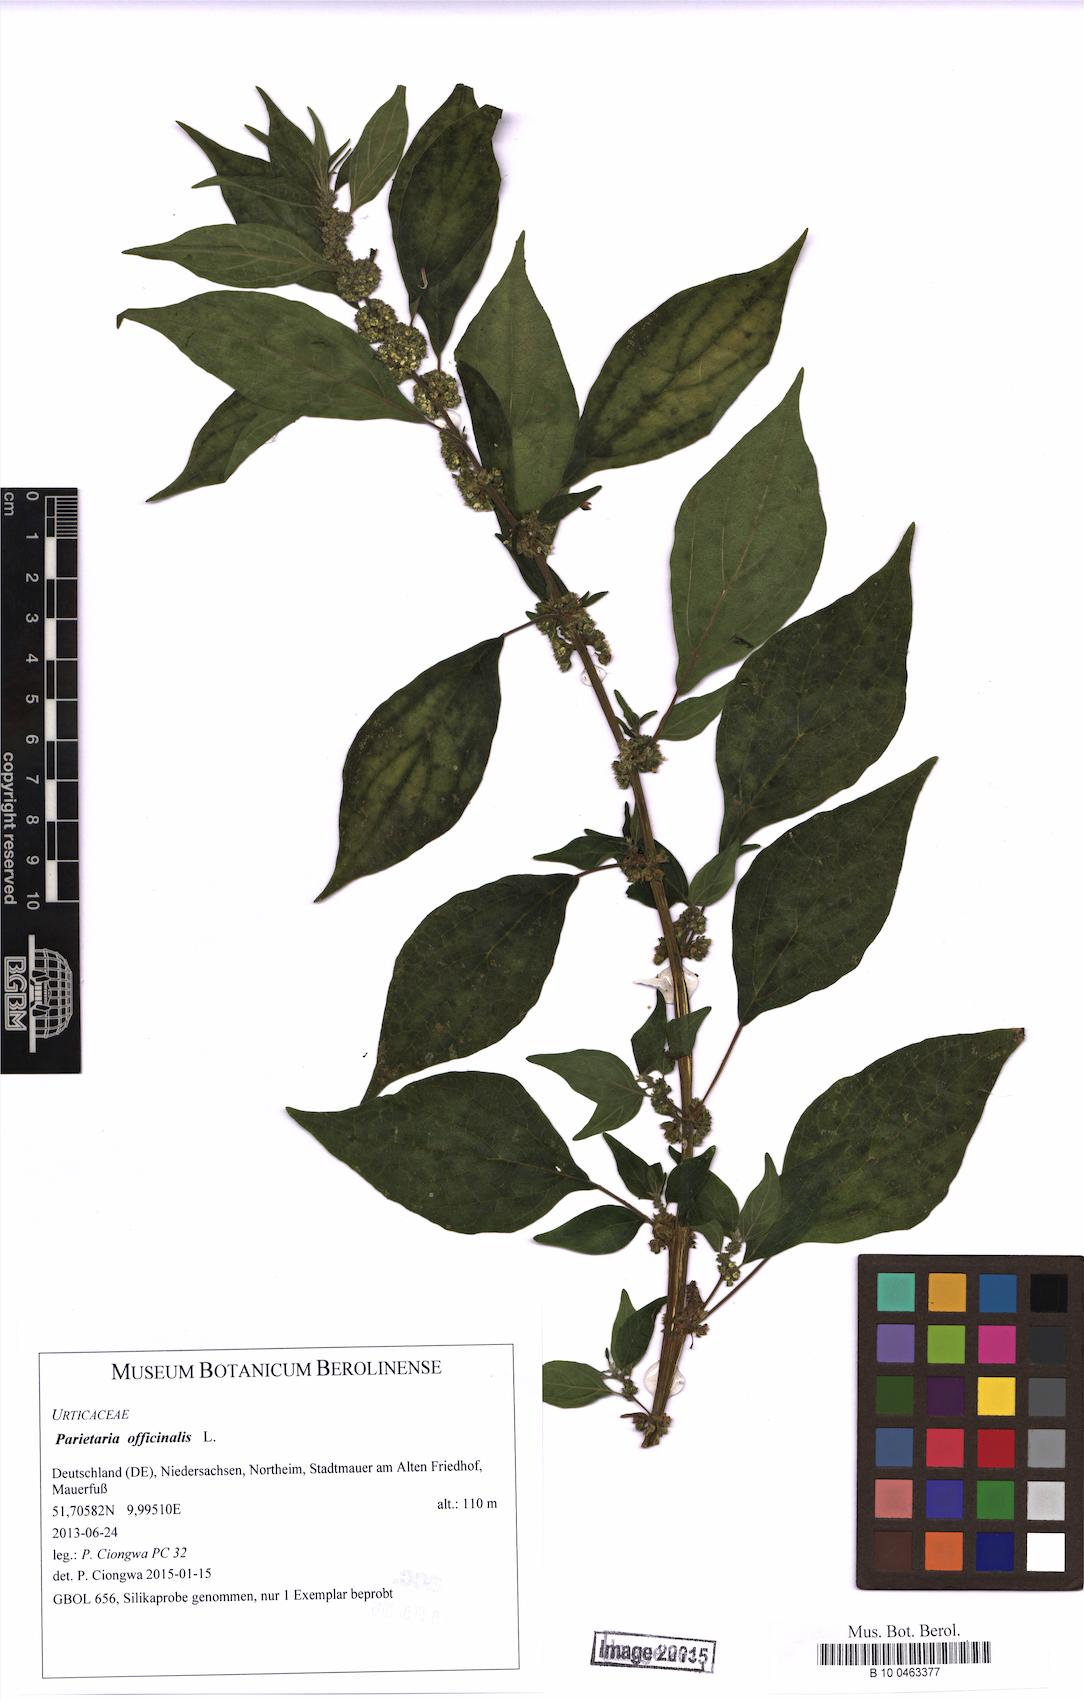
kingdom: Plantae
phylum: Tracheophyta
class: Magnoliopsida
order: Rosales
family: Urticaceae
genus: Parietaria
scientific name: Parietaria officinalis
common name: Eastern pellitory-of-the-wall
